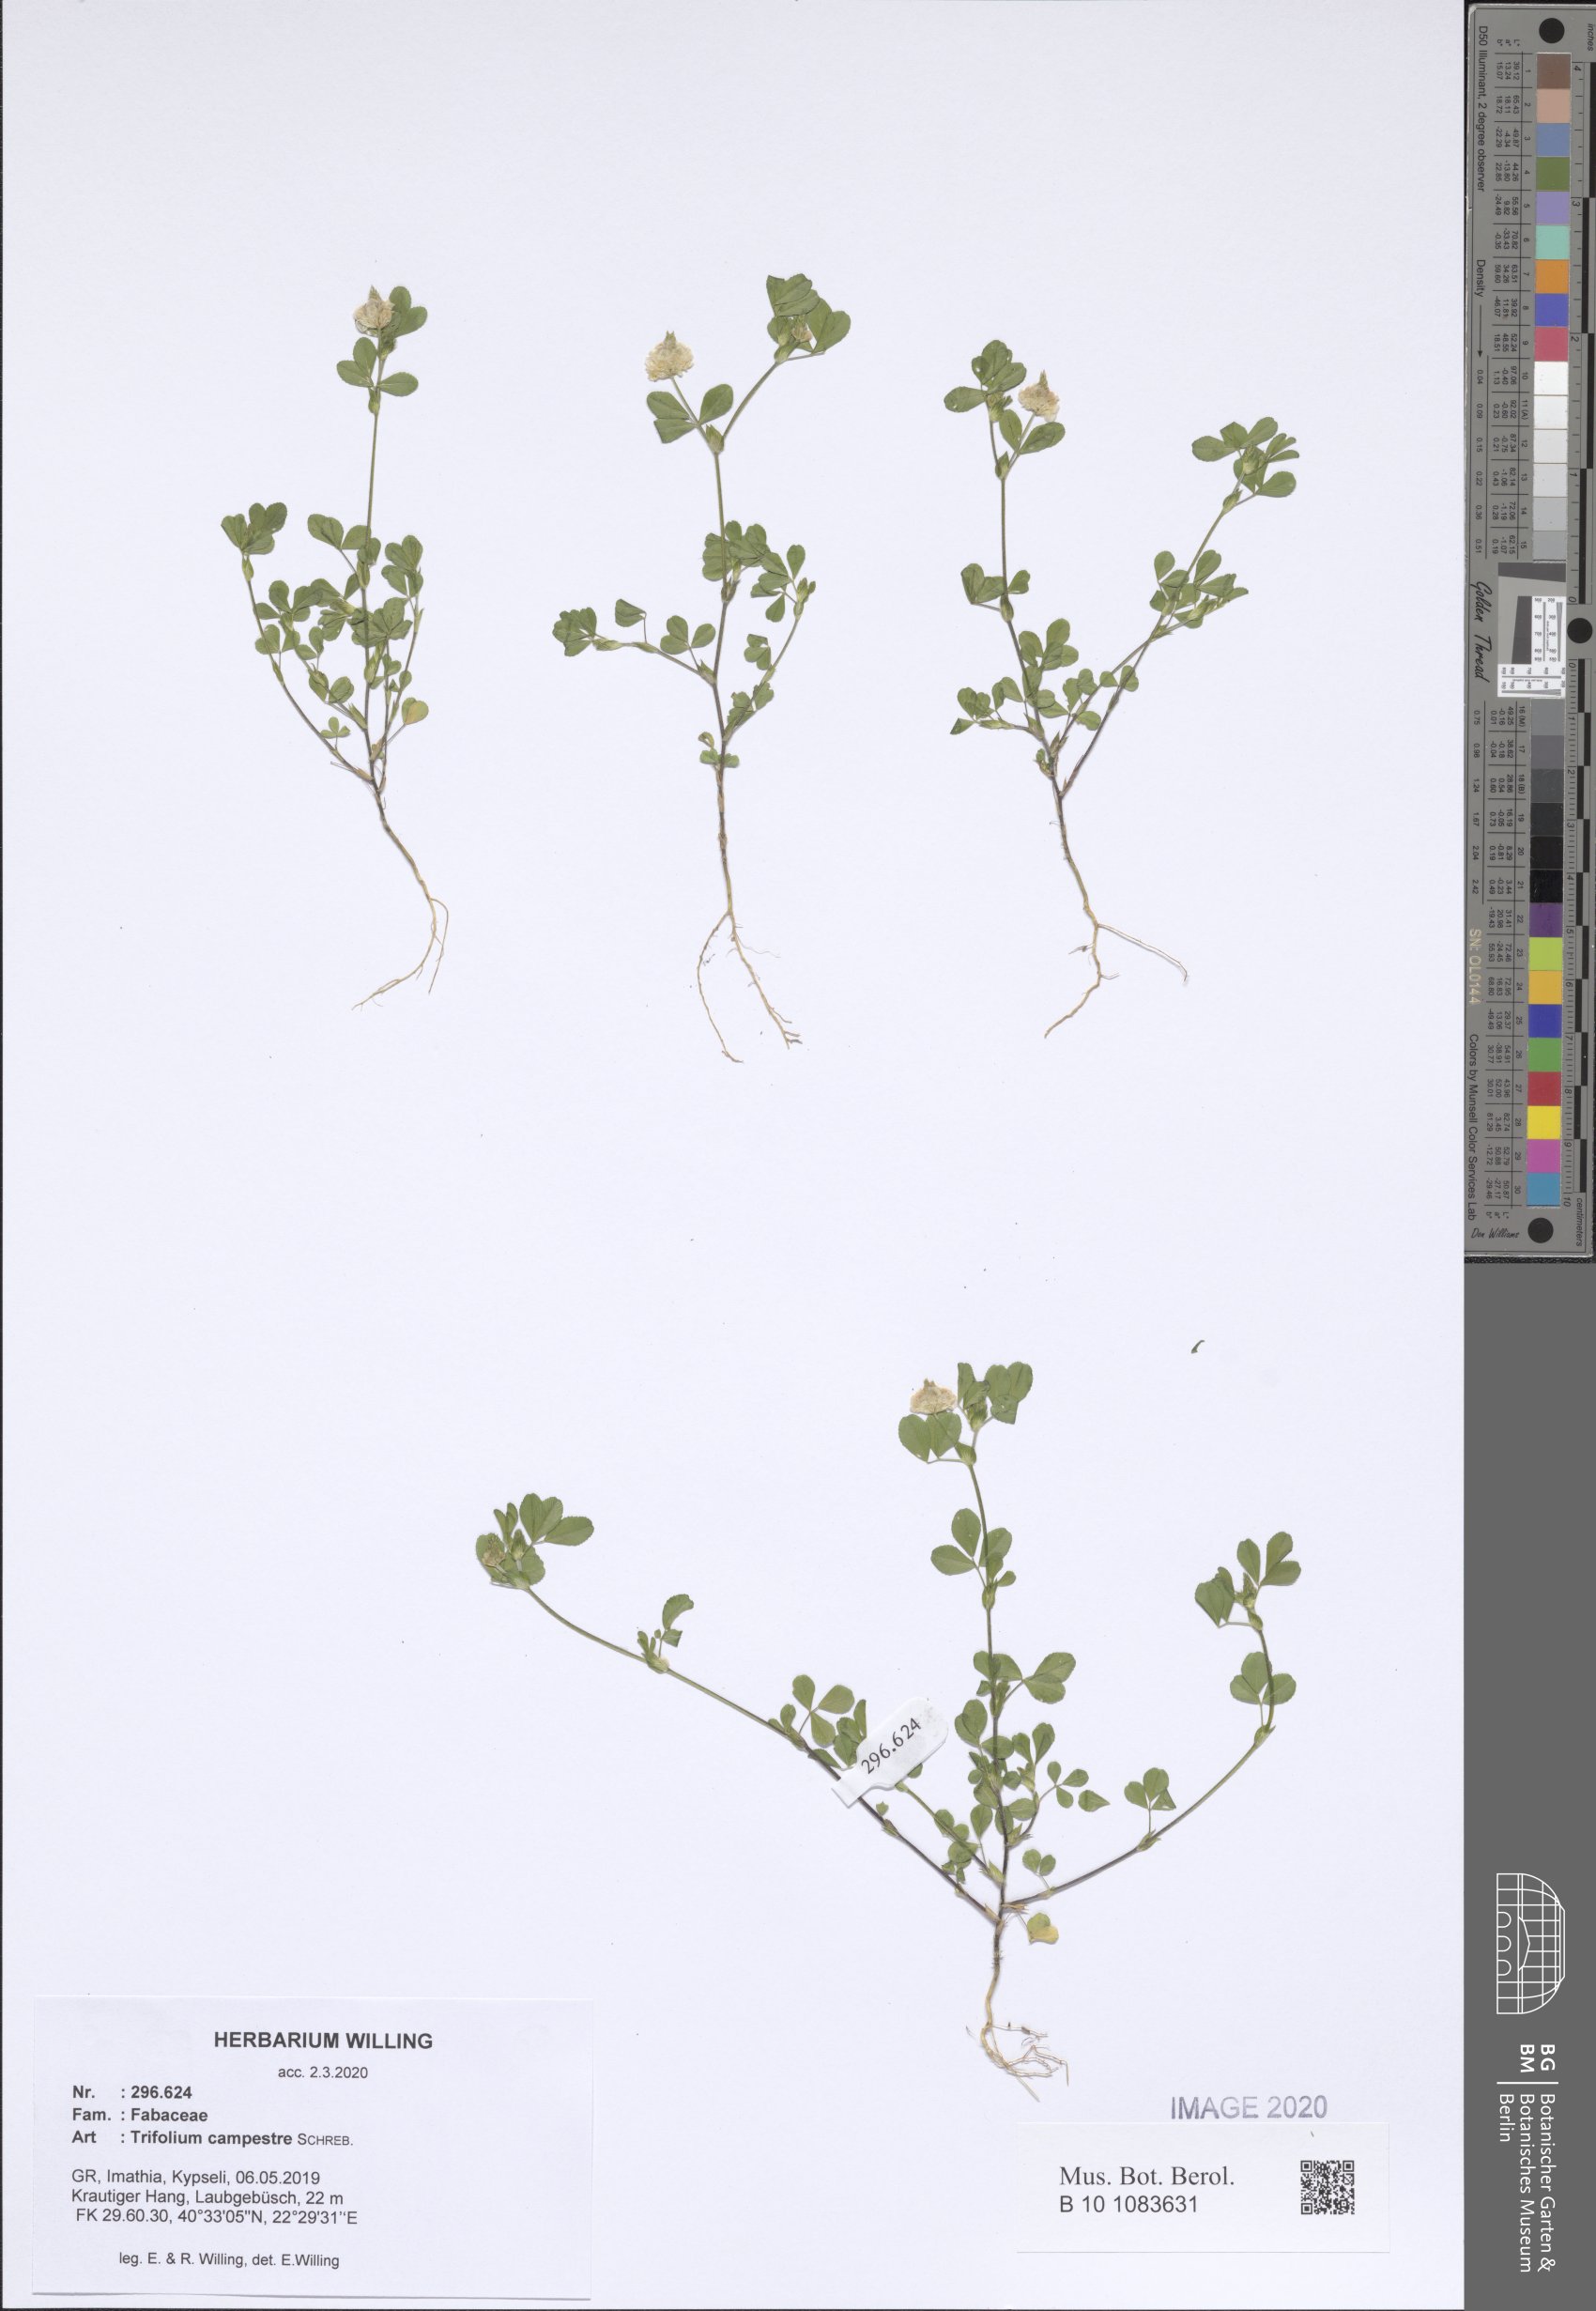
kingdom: Plantae
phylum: Tracheophyta
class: Magnoliopsida
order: Fabales
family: Fabaceae
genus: Trifolium
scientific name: Trifolium campestre
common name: Field clover
